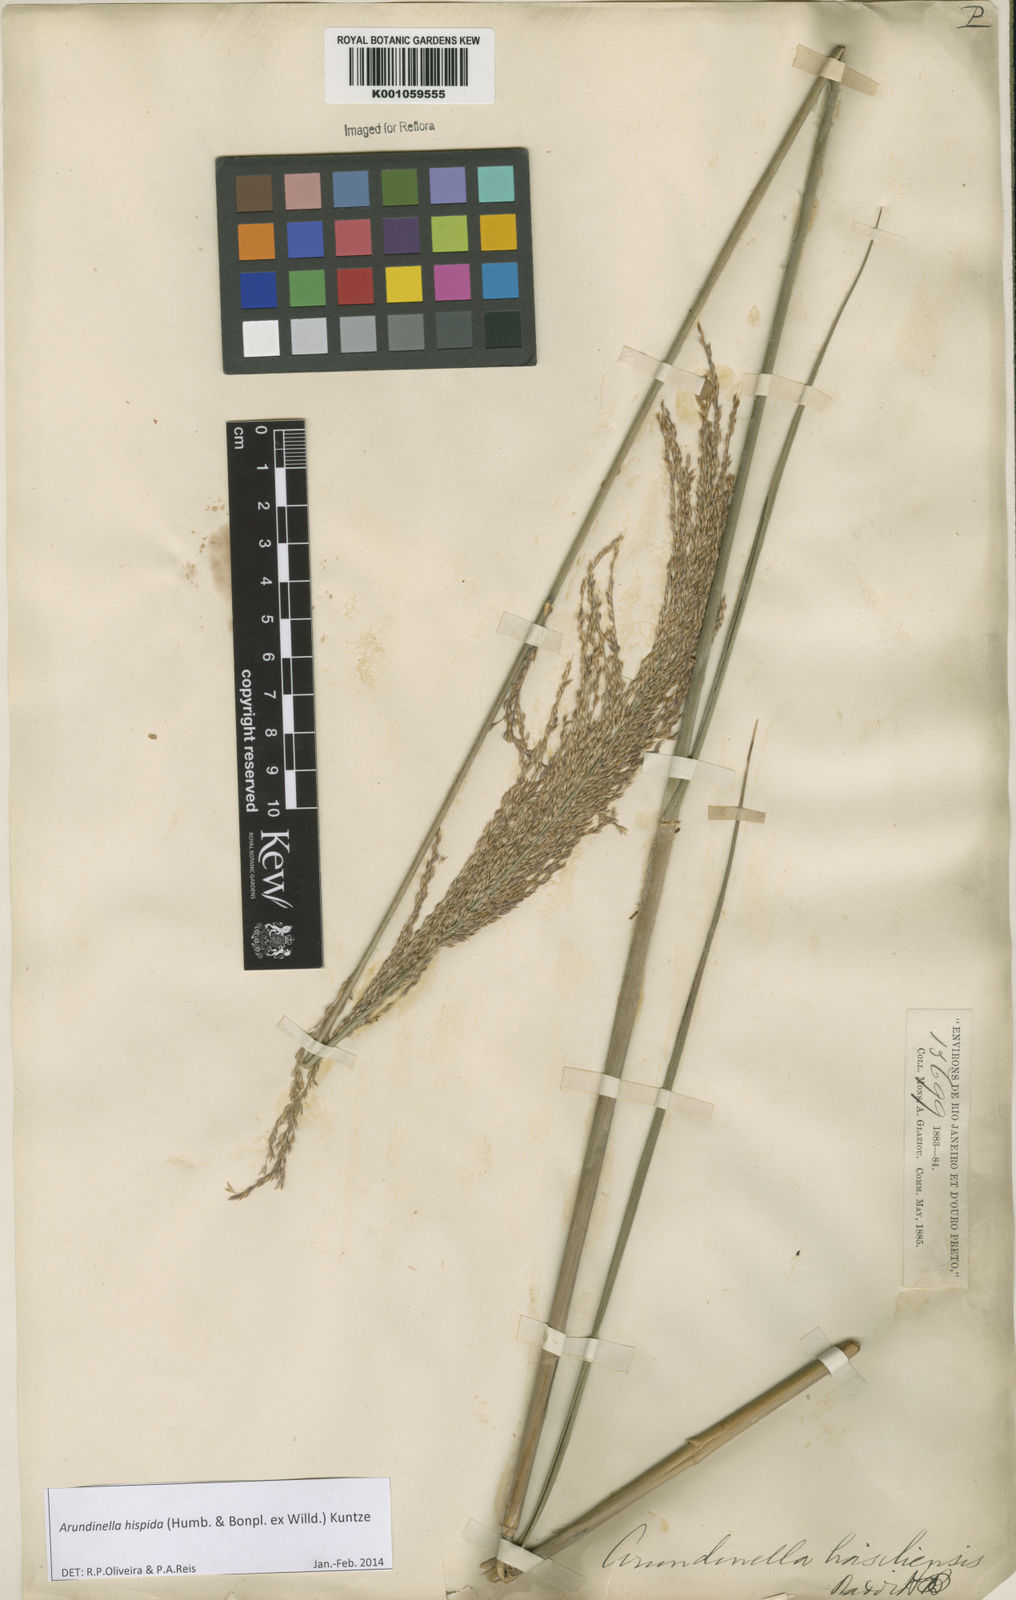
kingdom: Plantae
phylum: Tracheophyta
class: Liliopsida
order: Poales
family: Poaceae
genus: Arundinella
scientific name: Arundinella hispida
